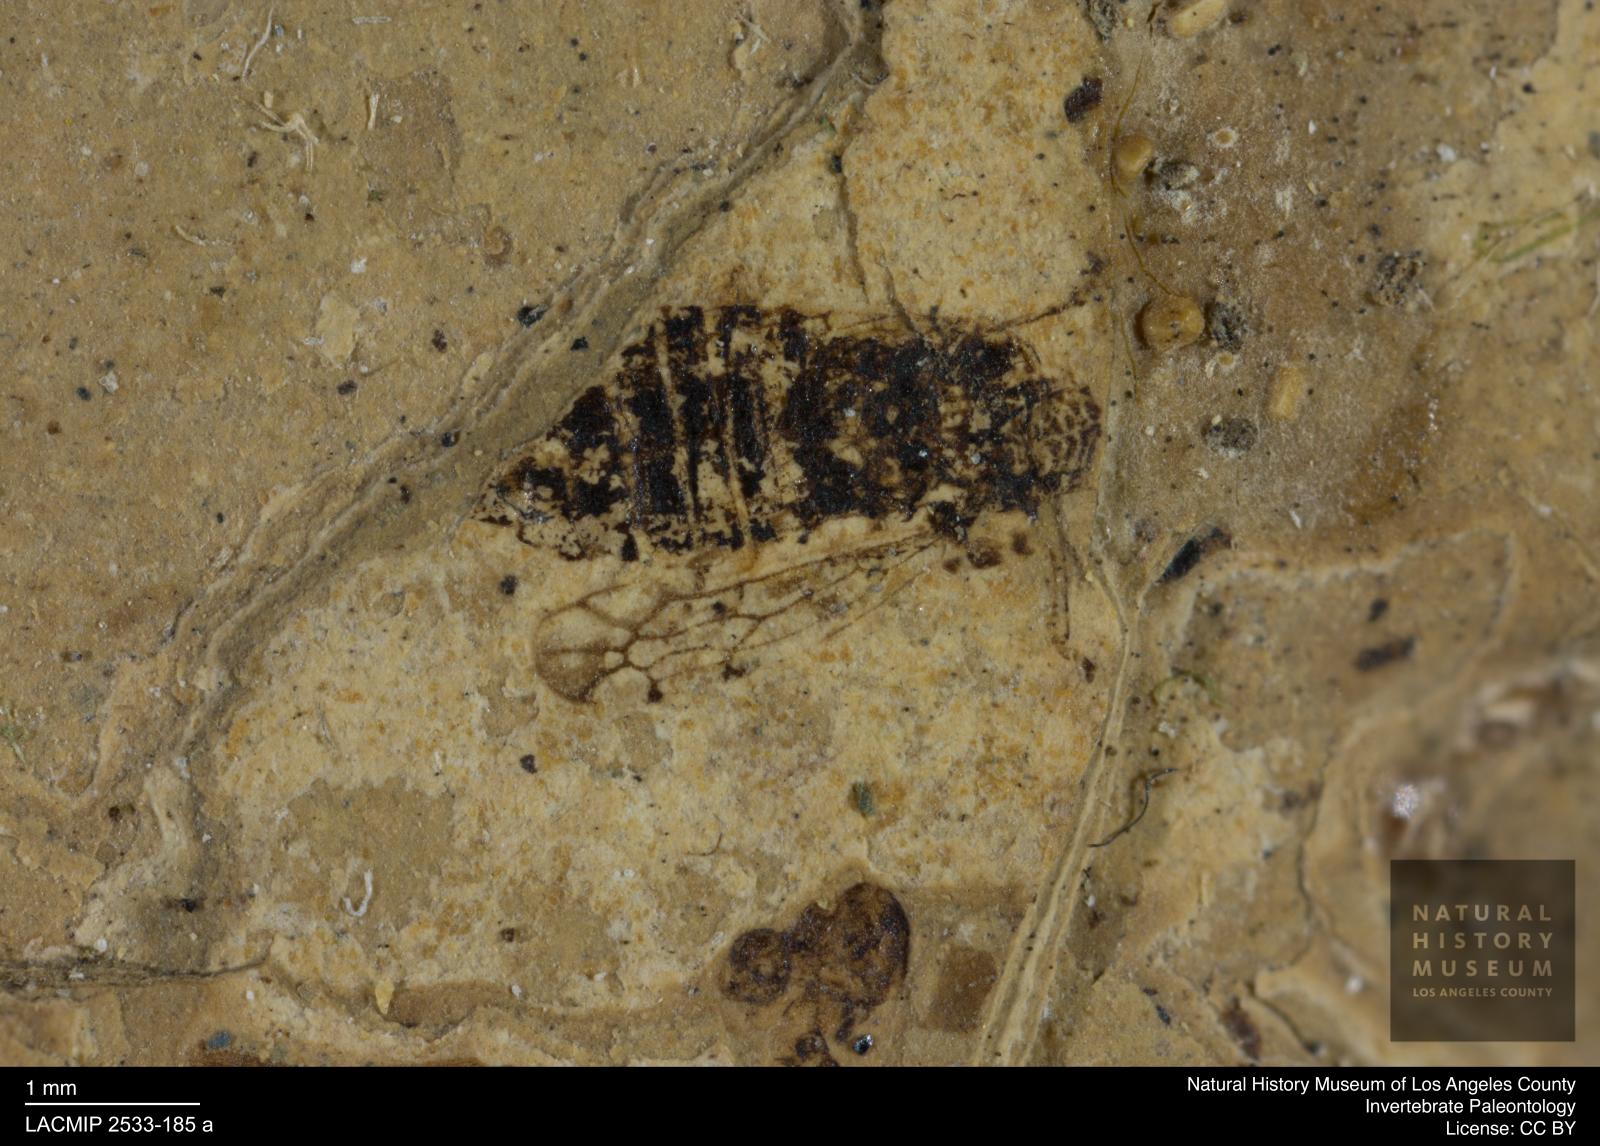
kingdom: Animalia
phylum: Arthropoda
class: Insecta
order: Hemiptera
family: Cicadellidae
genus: Thamnotettix
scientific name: Thamnotettix ampliventris
